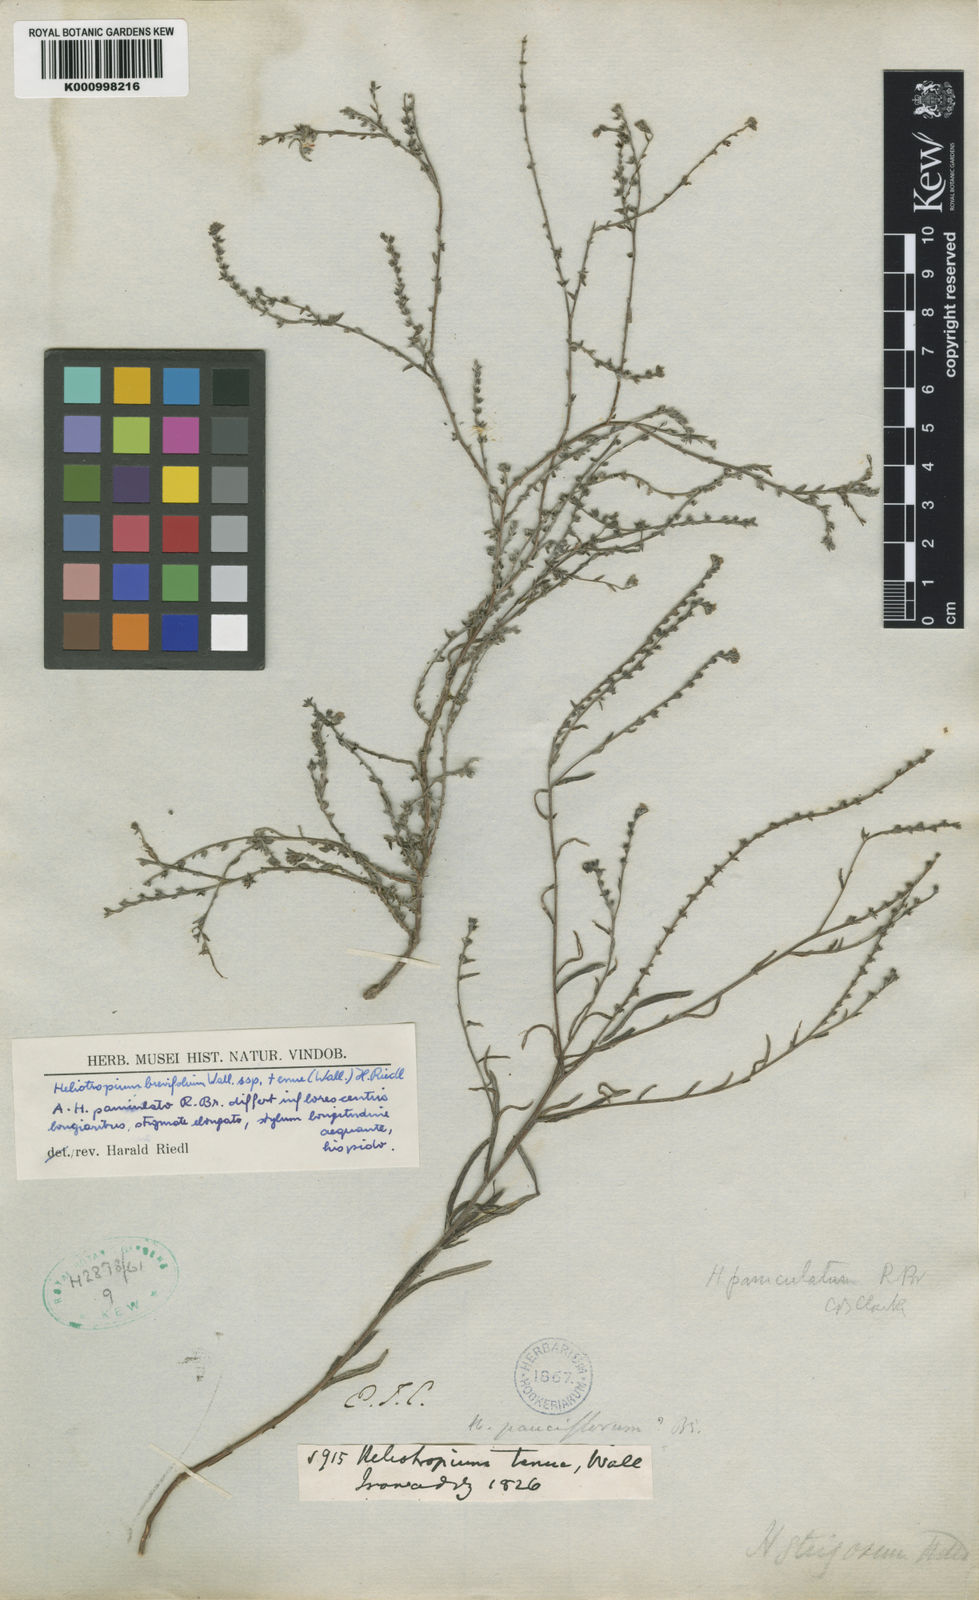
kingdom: Plantae
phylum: Tracheophyta
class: Magnoliopsida
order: Boraginales
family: Heliotropiaceae
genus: Euploca
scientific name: Euploca paniculata
